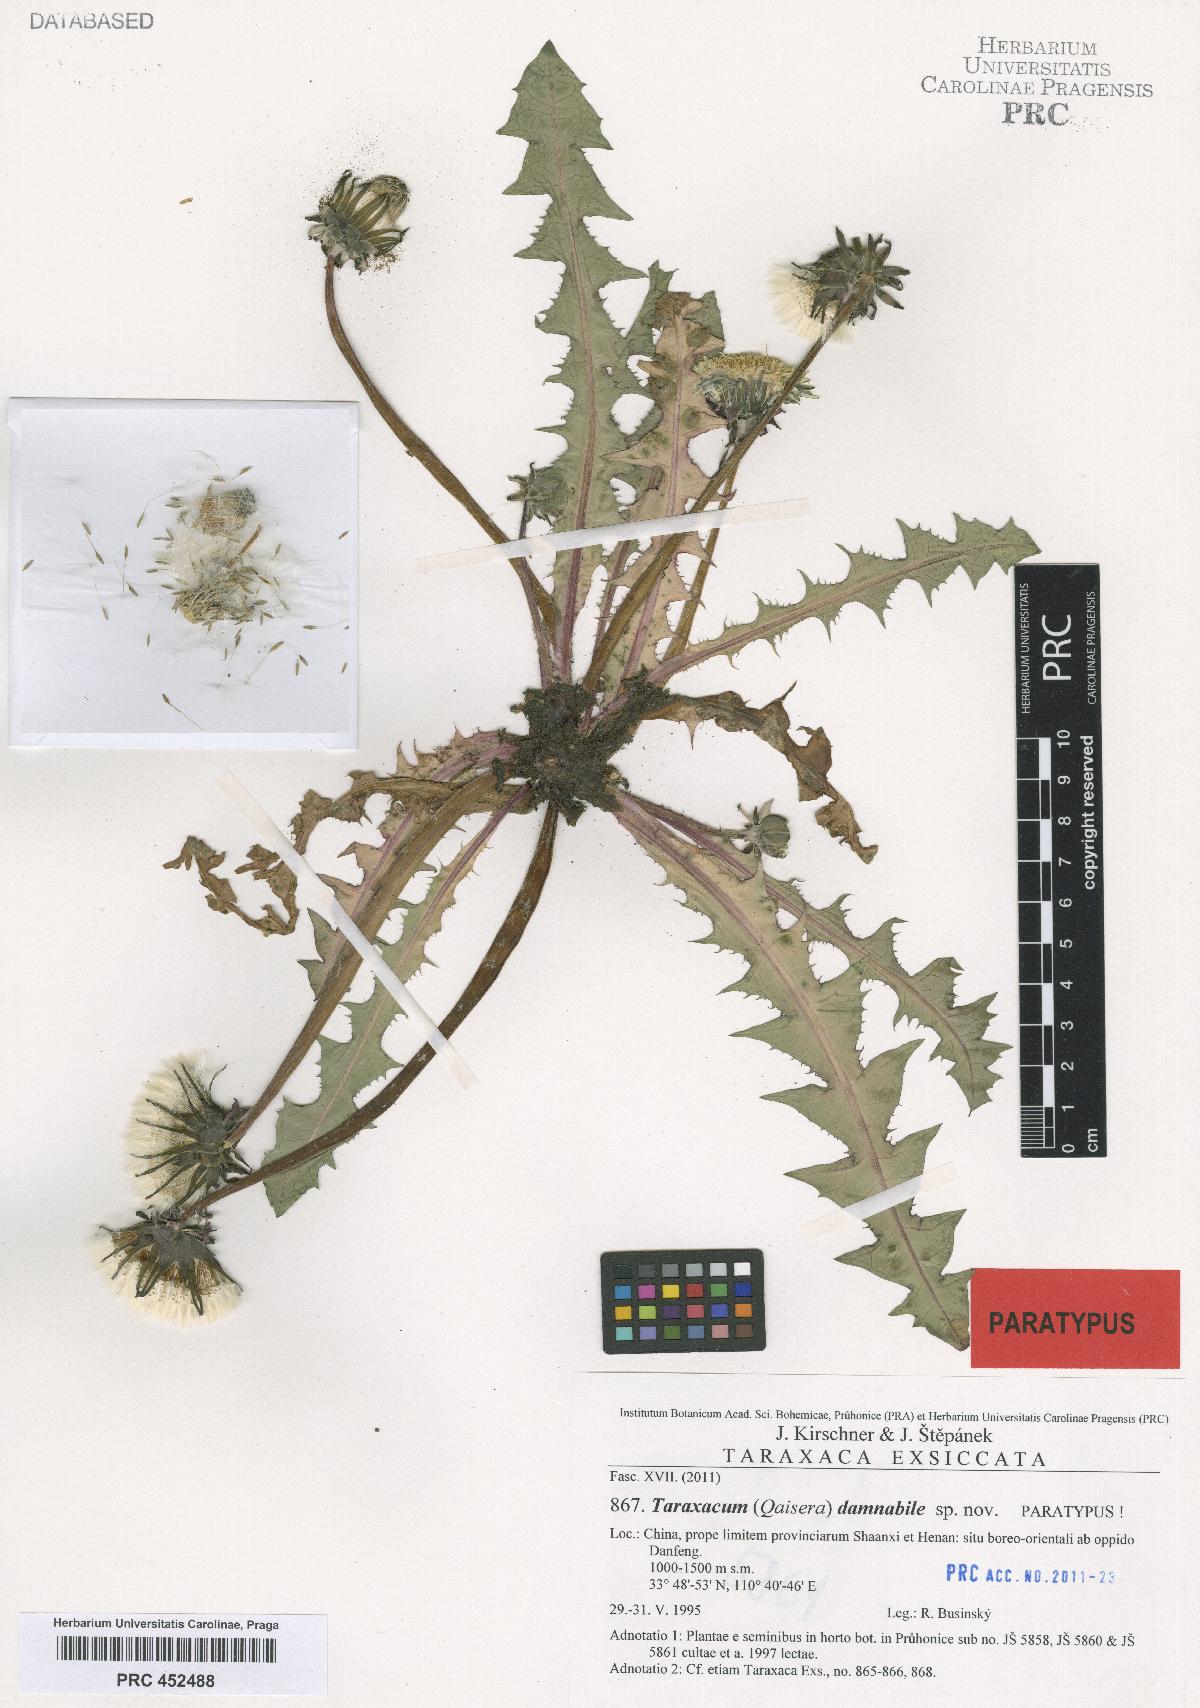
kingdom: Plantae
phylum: Tracheophyta
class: Magnoliopsida
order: Asterales
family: Asteraceae
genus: Taraxacum
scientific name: Taraxacum damnabile
